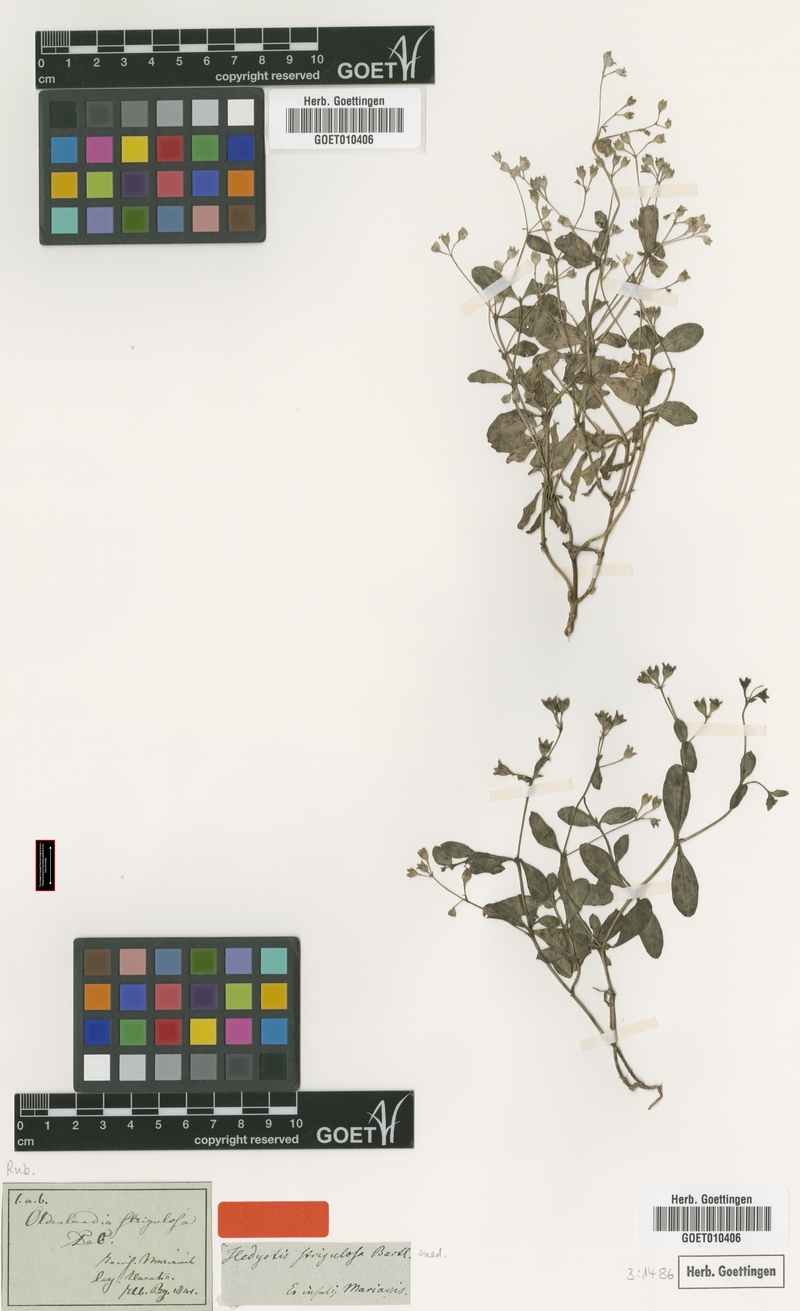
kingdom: Plantae
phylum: Tracheophyta
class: Magnoliopsida
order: Gentianales
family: Rubiaceae
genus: Leptopetalum
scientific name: Leptopetalum strigulosum
